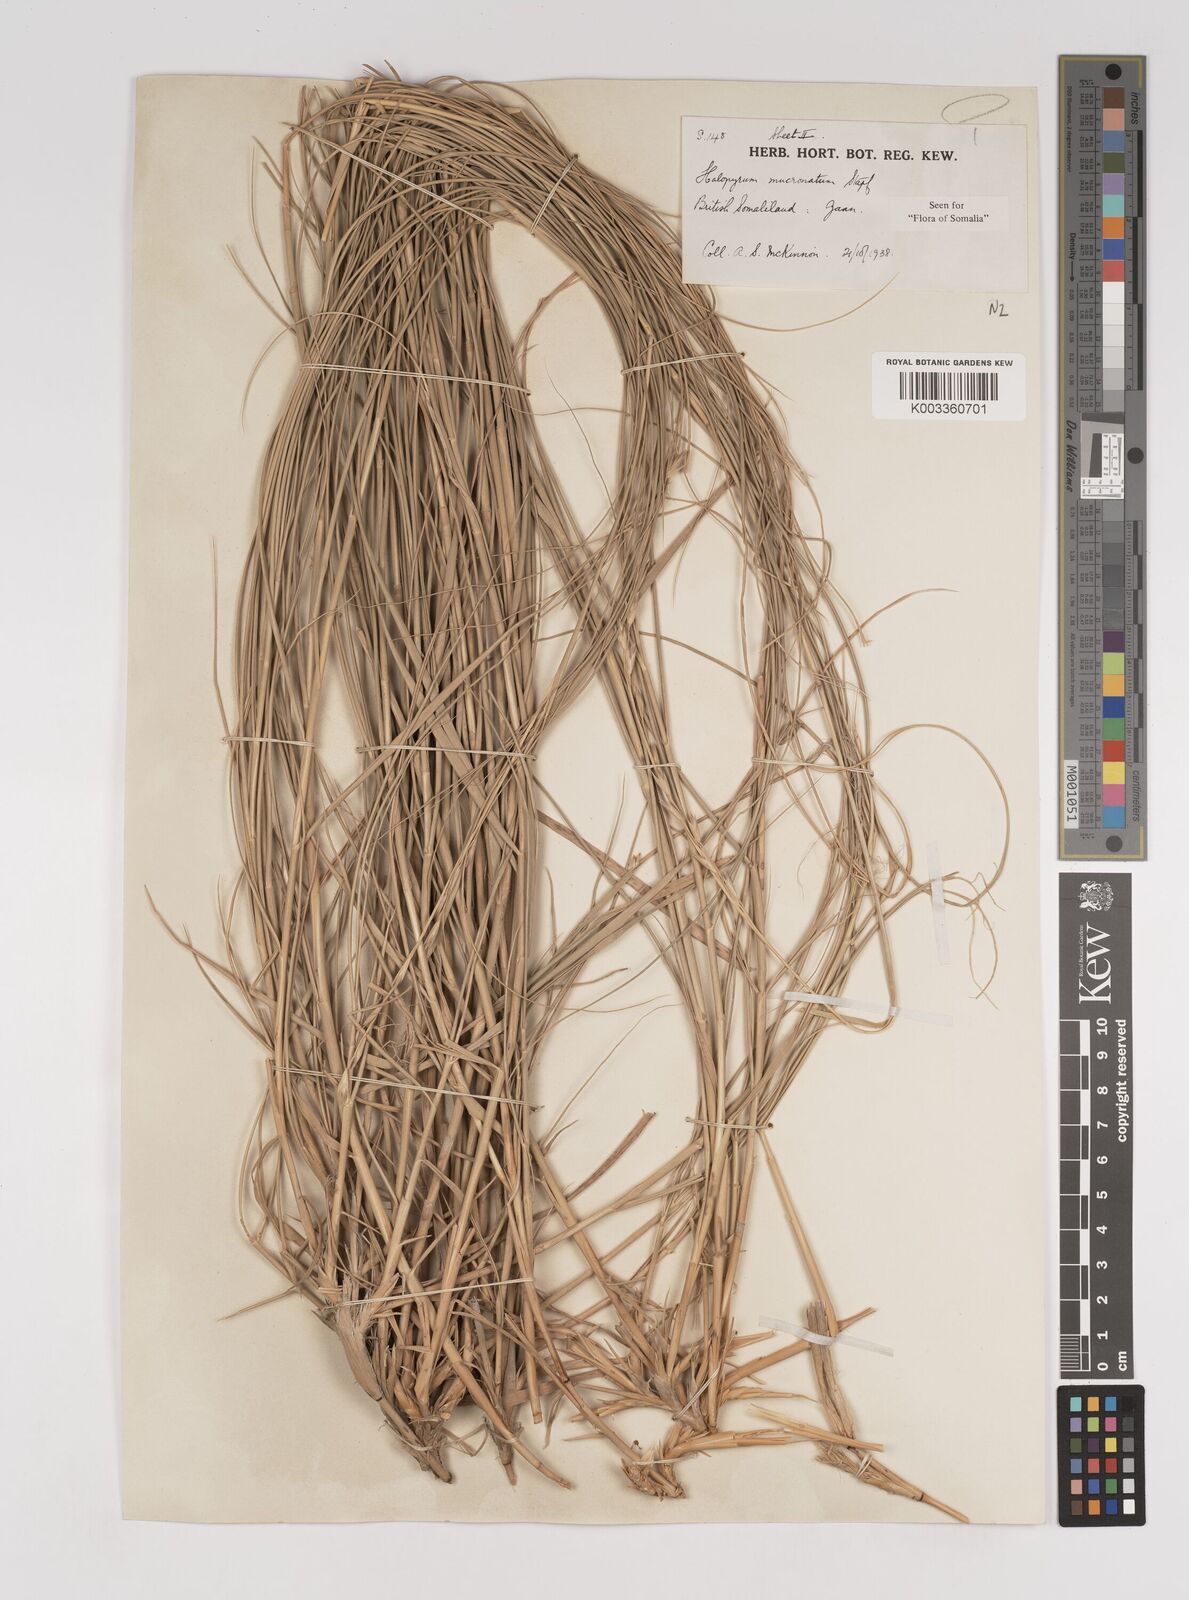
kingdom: Plantae
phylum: Tracheophyta
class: Liliopsida
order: Poales
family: Poaceae
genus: Halopyrum
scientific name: Halopyrum mucronatum
